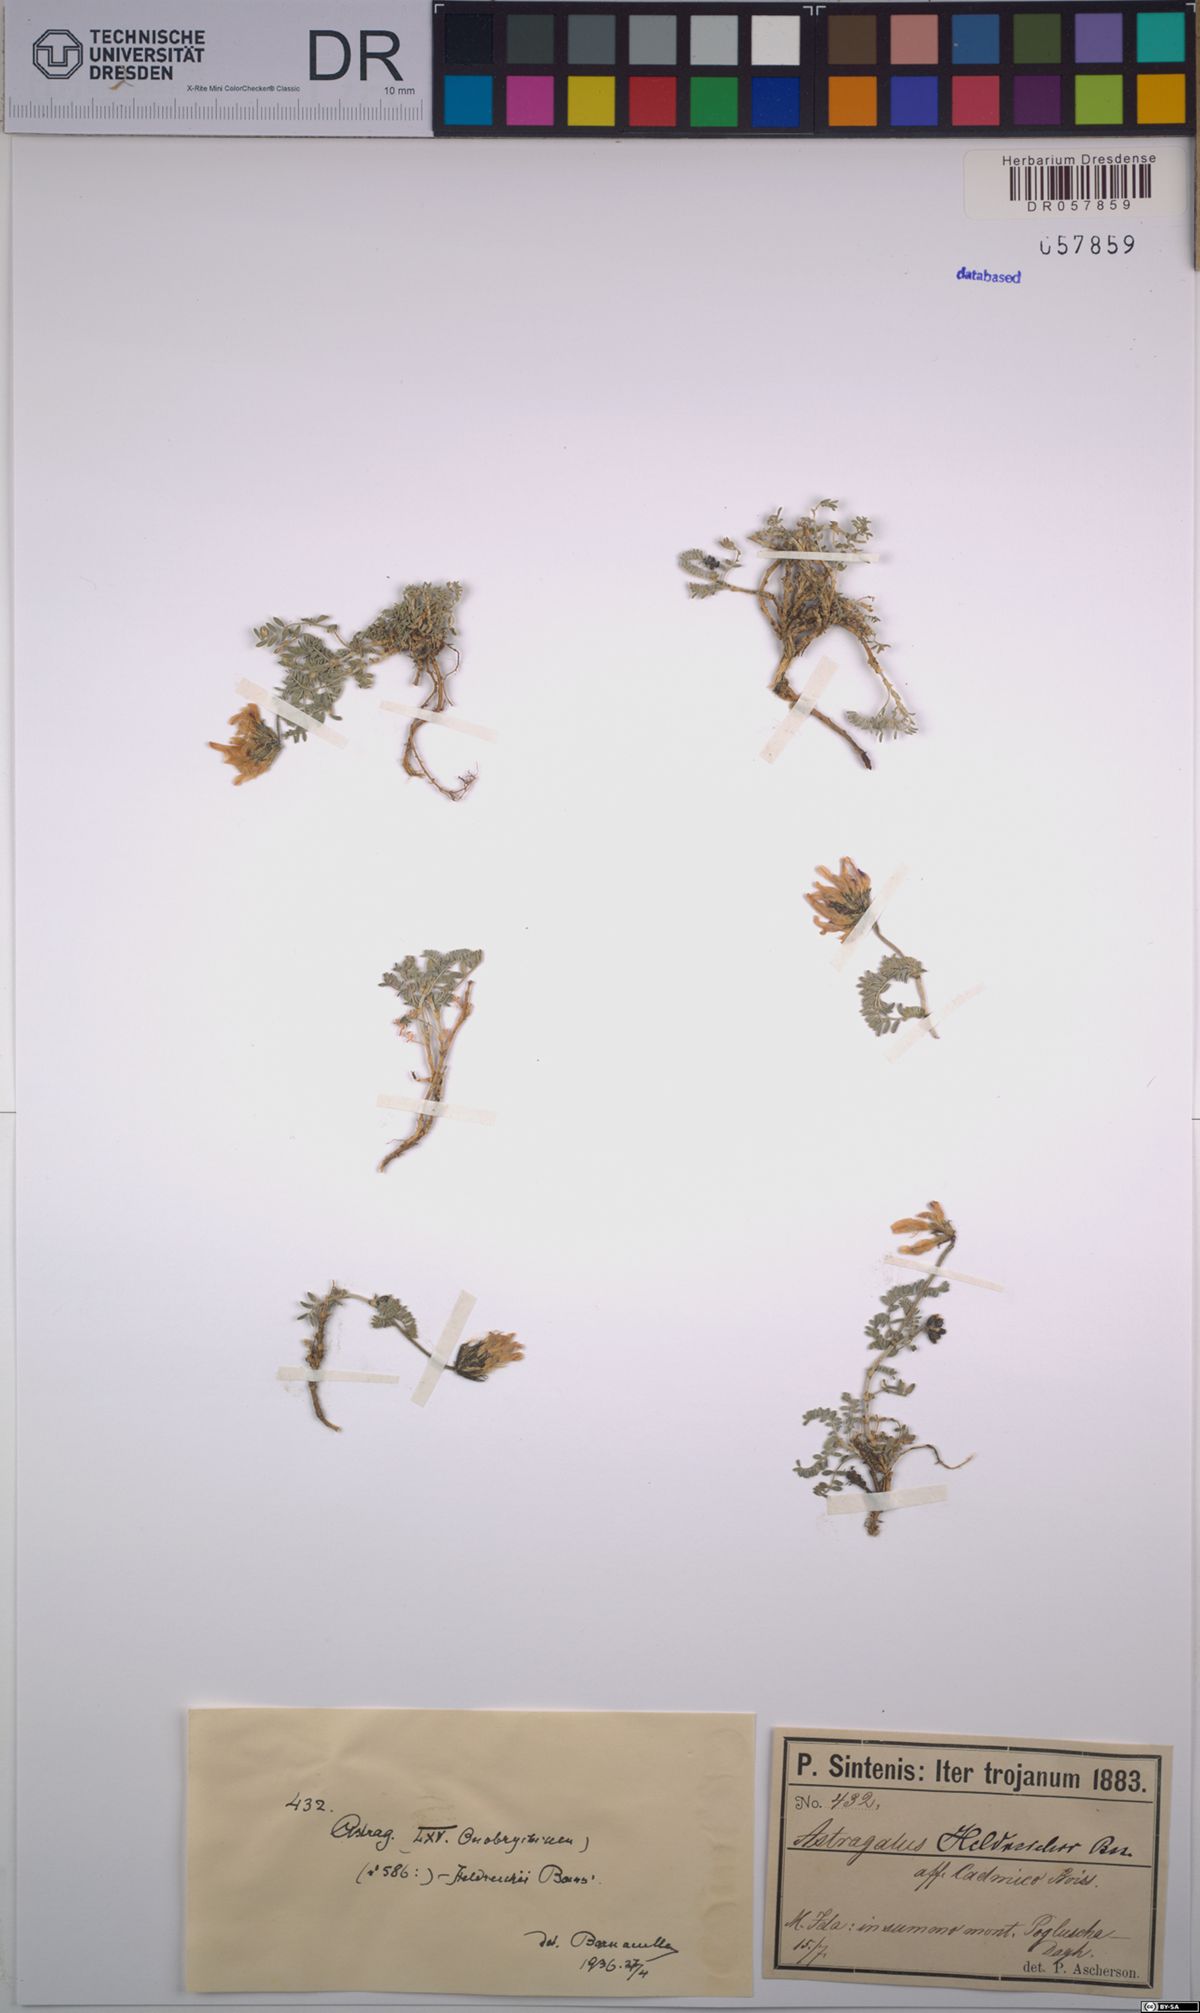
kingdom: Plantae
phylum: Tracheophyta
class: Magnoliopsida
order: Fabales
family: Fabaceae
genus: Astragalus
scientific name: Astragalus heldreichii
